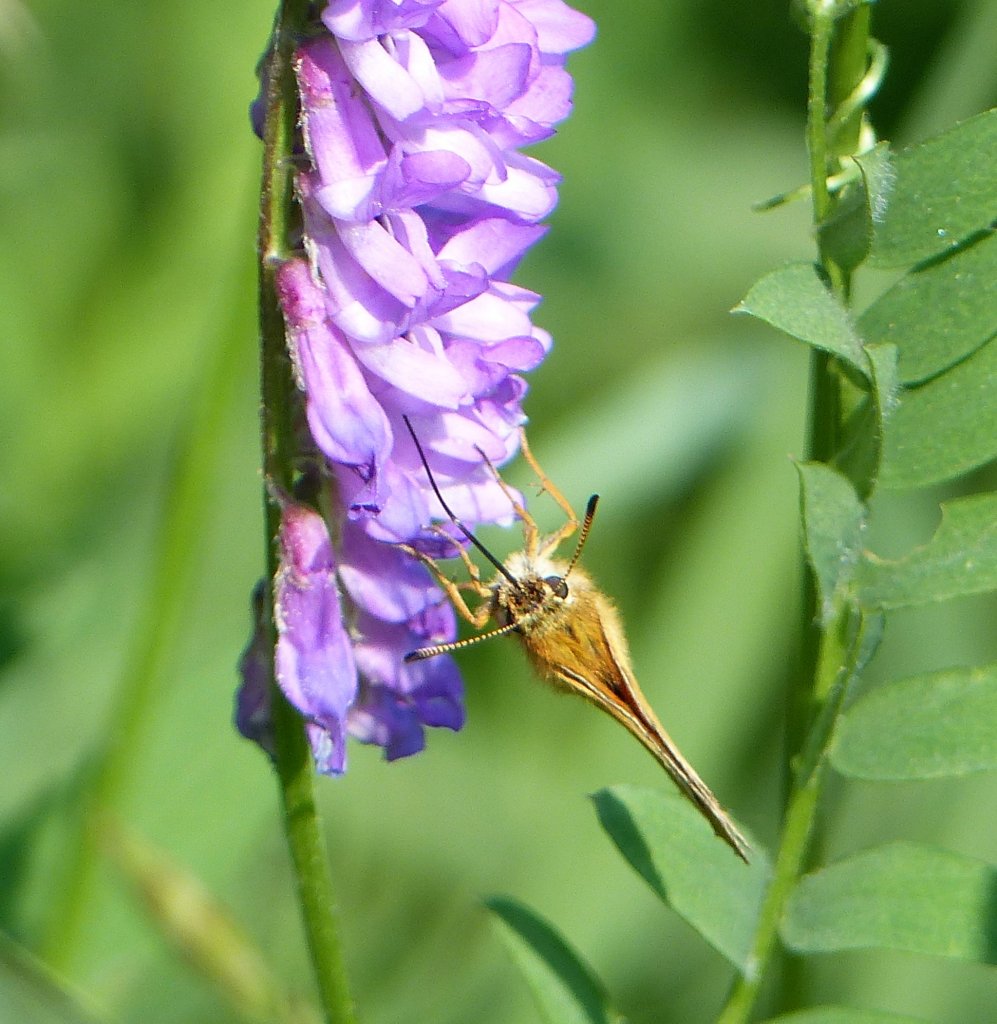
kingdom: Animalia
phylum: Arthropoda
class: Insecta
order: Lepidoptera
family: Hesperiidae
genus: Ancyloxypha
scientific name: Ancyloxypha numitor
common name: Least Skipper
